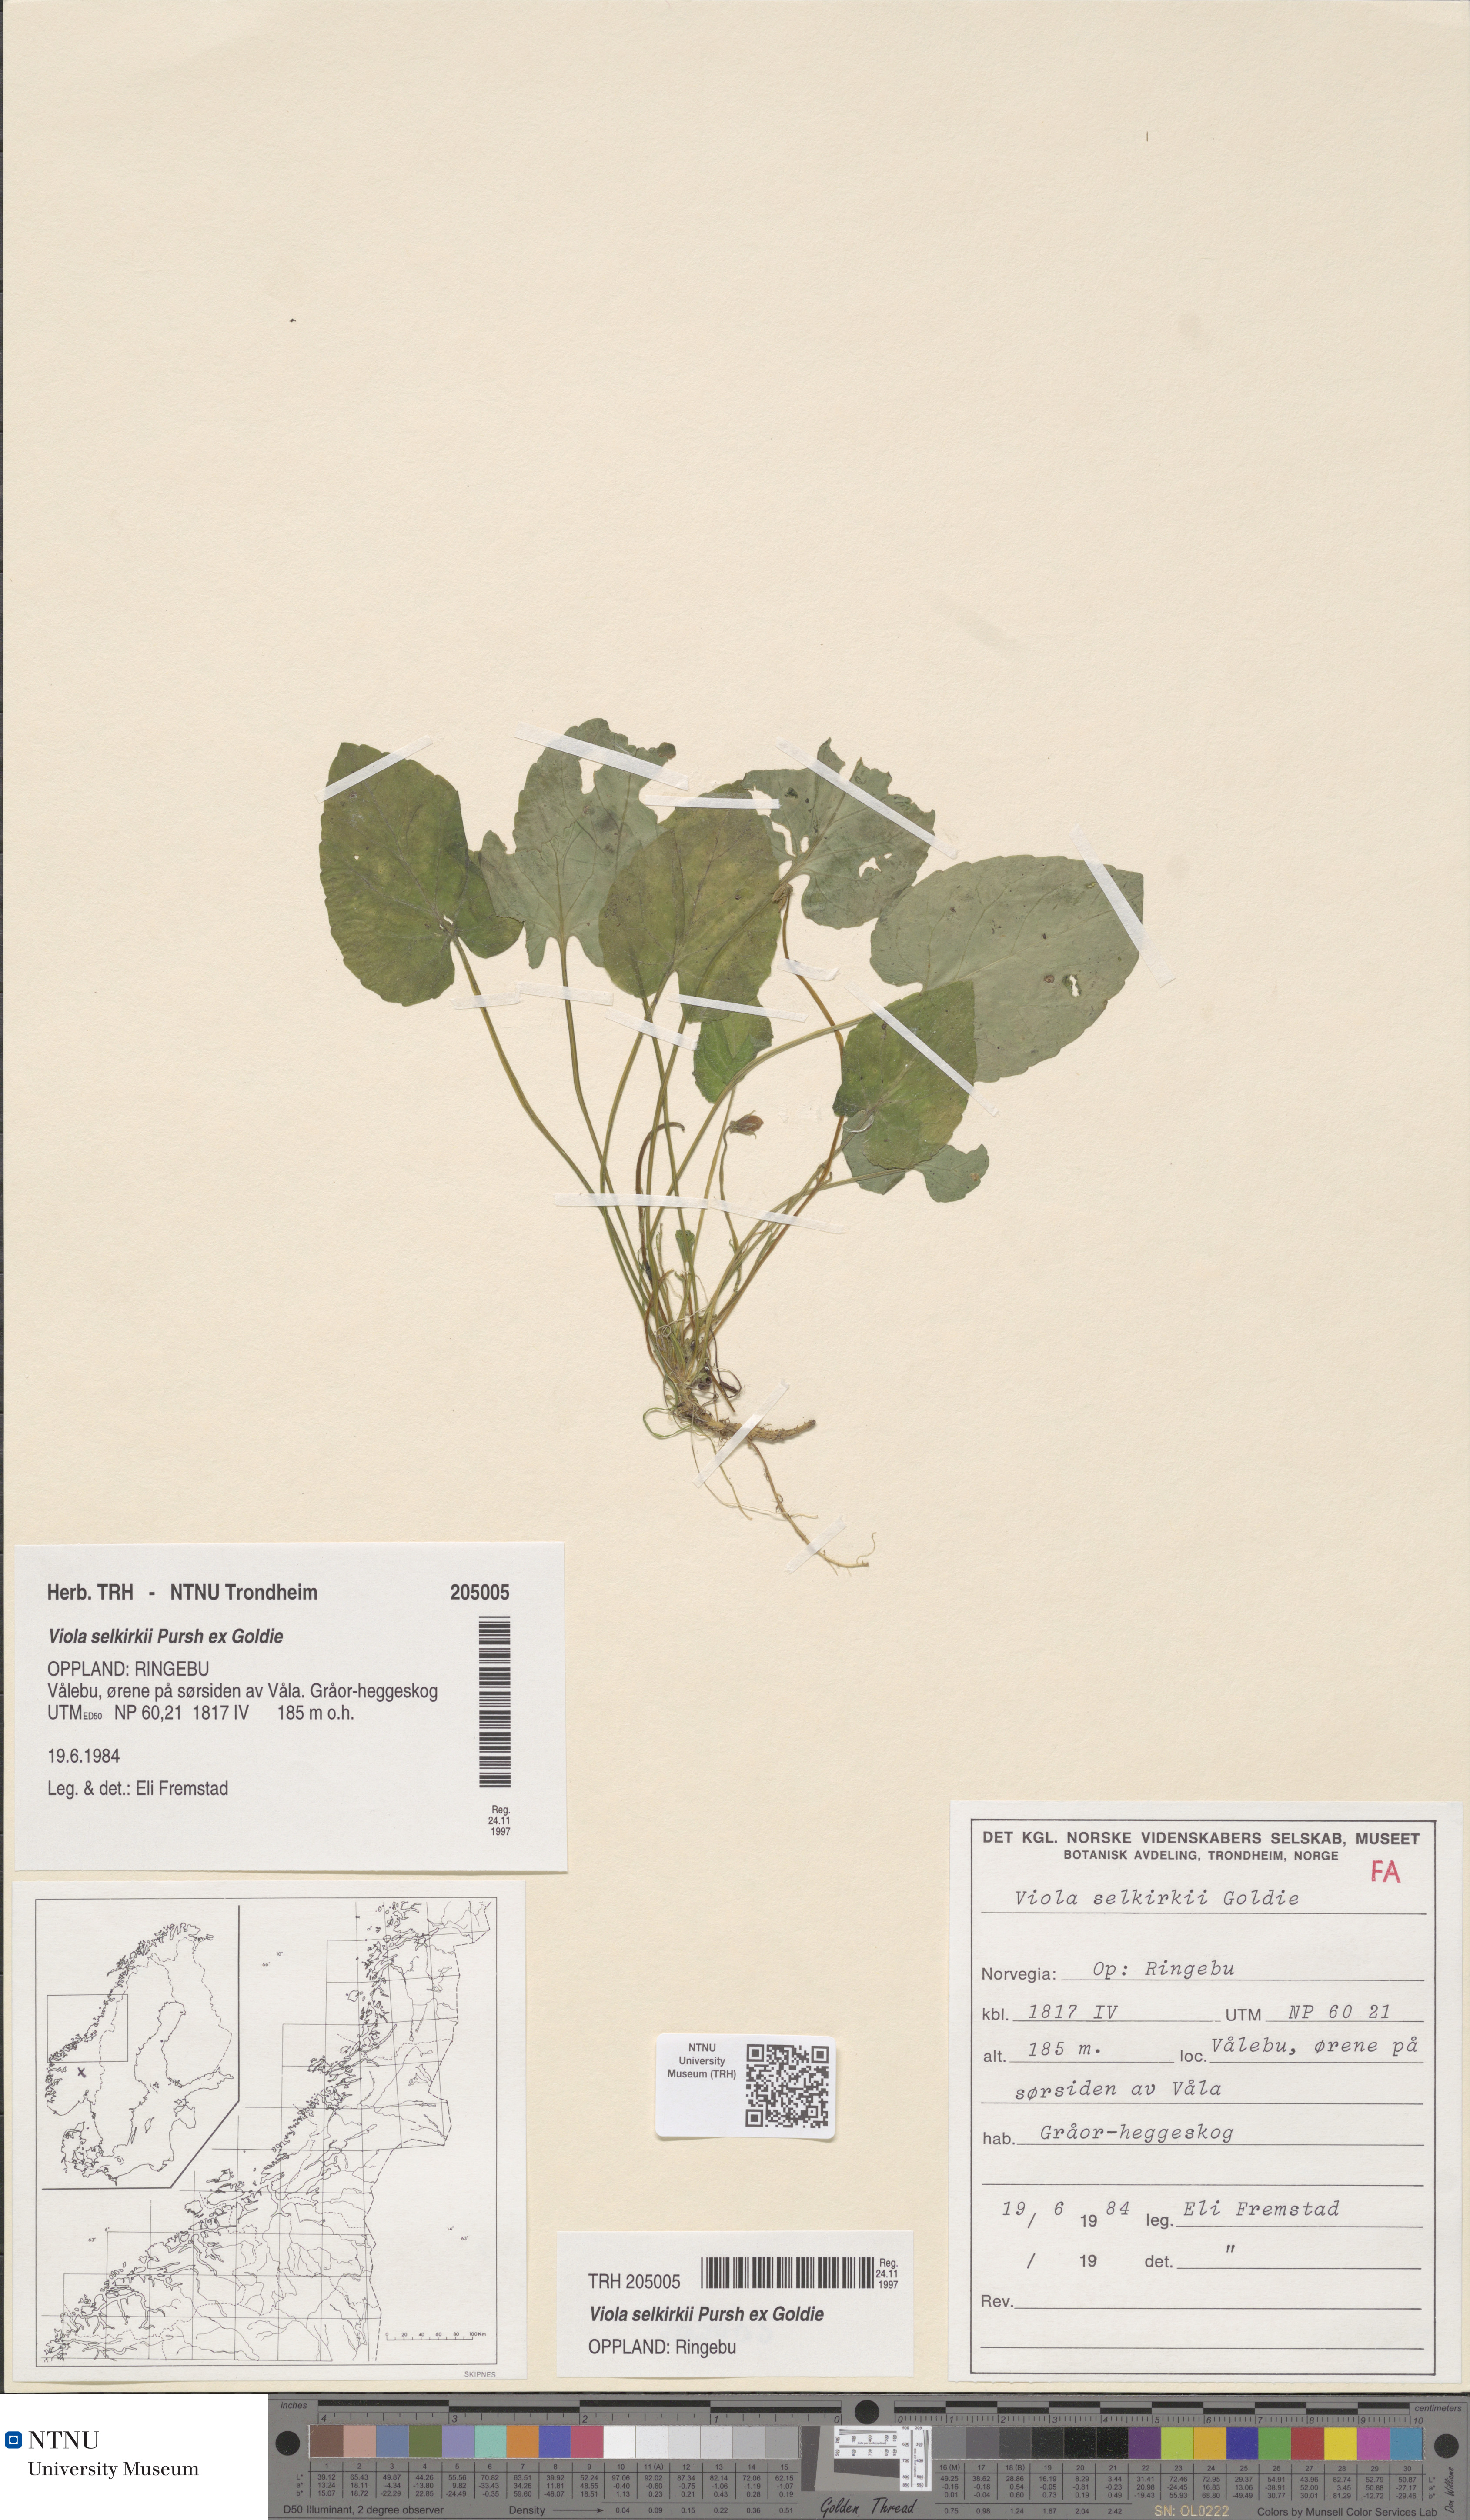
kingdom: Plantae
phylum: Tracheophyta
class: Magnoliopsida
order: Malpighiales
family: Violaceae
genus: Viola
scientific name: Viola selkirkii
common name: Selkirk's violet
